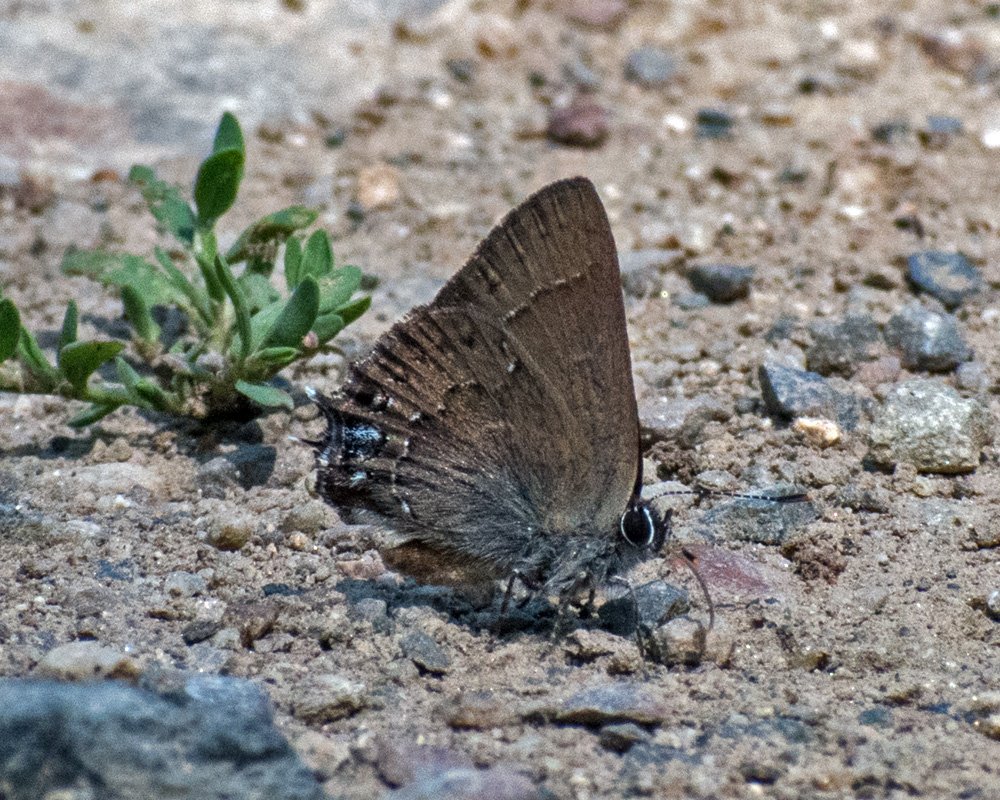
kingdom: Animalia
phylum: Arthropoda
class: Insecta
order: Lepidoptera
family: Lycaenidae
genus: Strymon
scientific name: Strymon saepium
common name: Hedgerow Hairstreak
